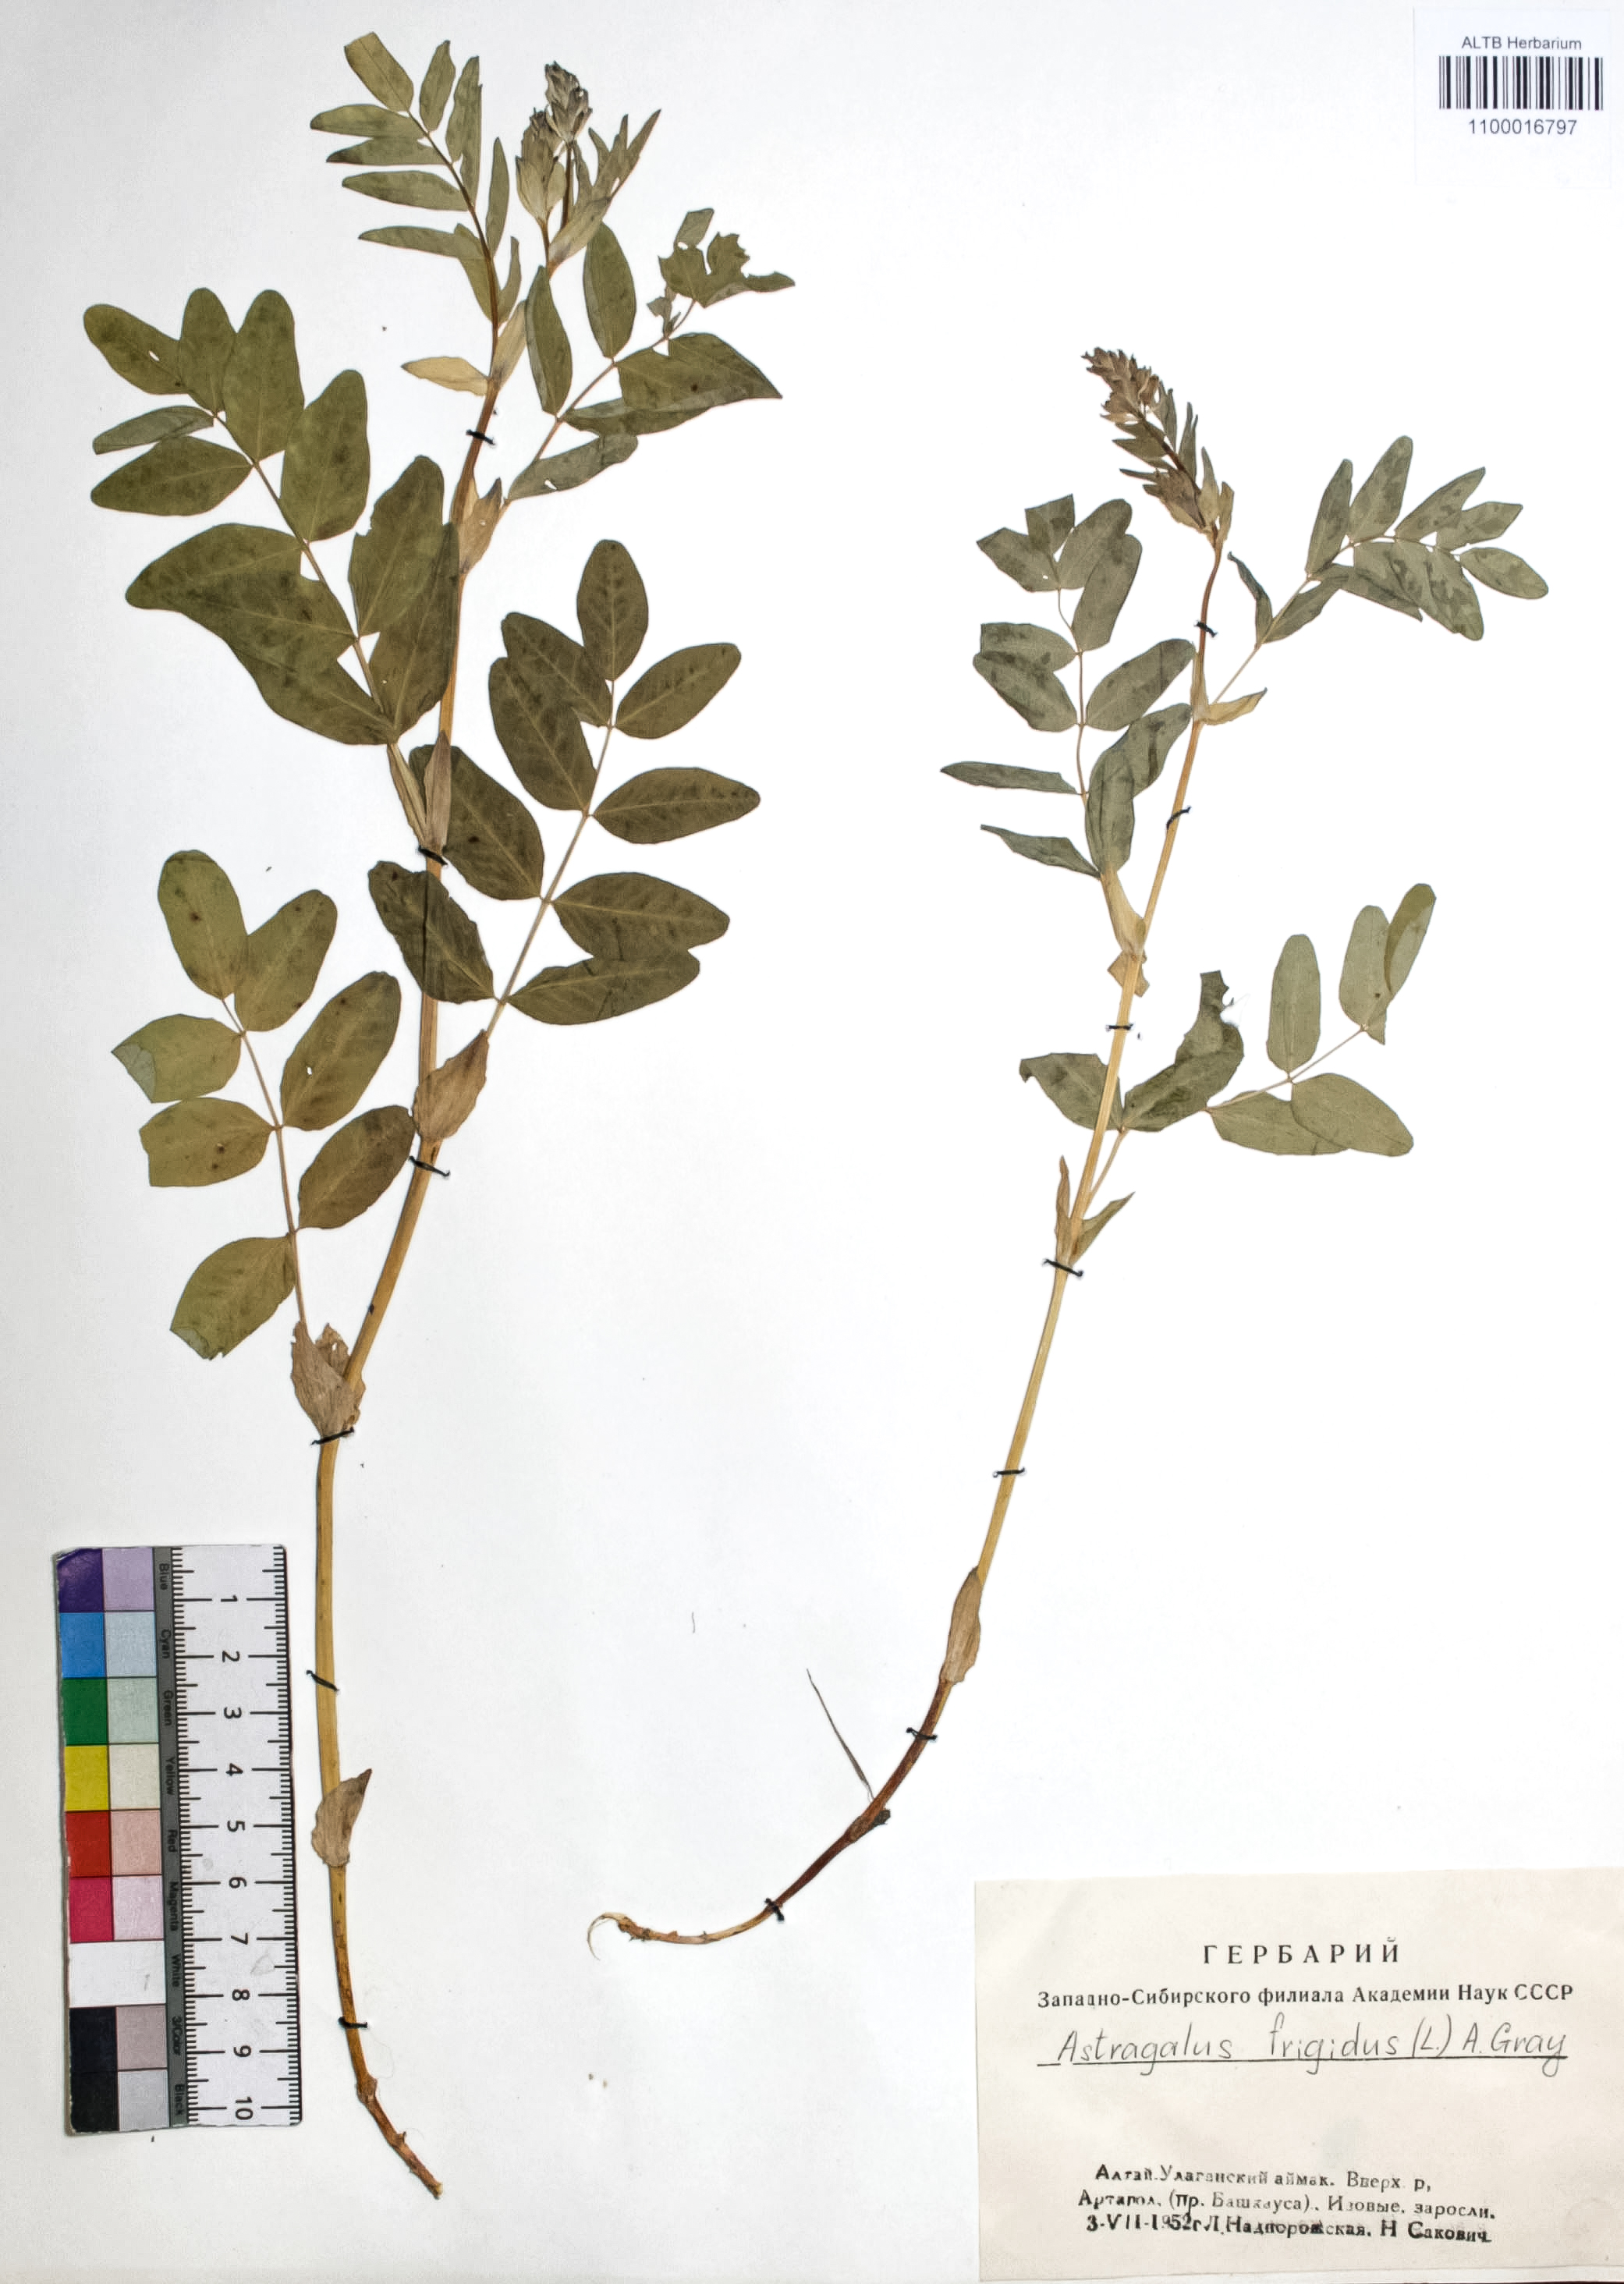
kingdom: Plantae
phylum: Tracheophyta
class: Magnoliopsida
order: Fabales
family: Fabaceae
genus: Astragalus
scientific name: Astragalus frigidus
